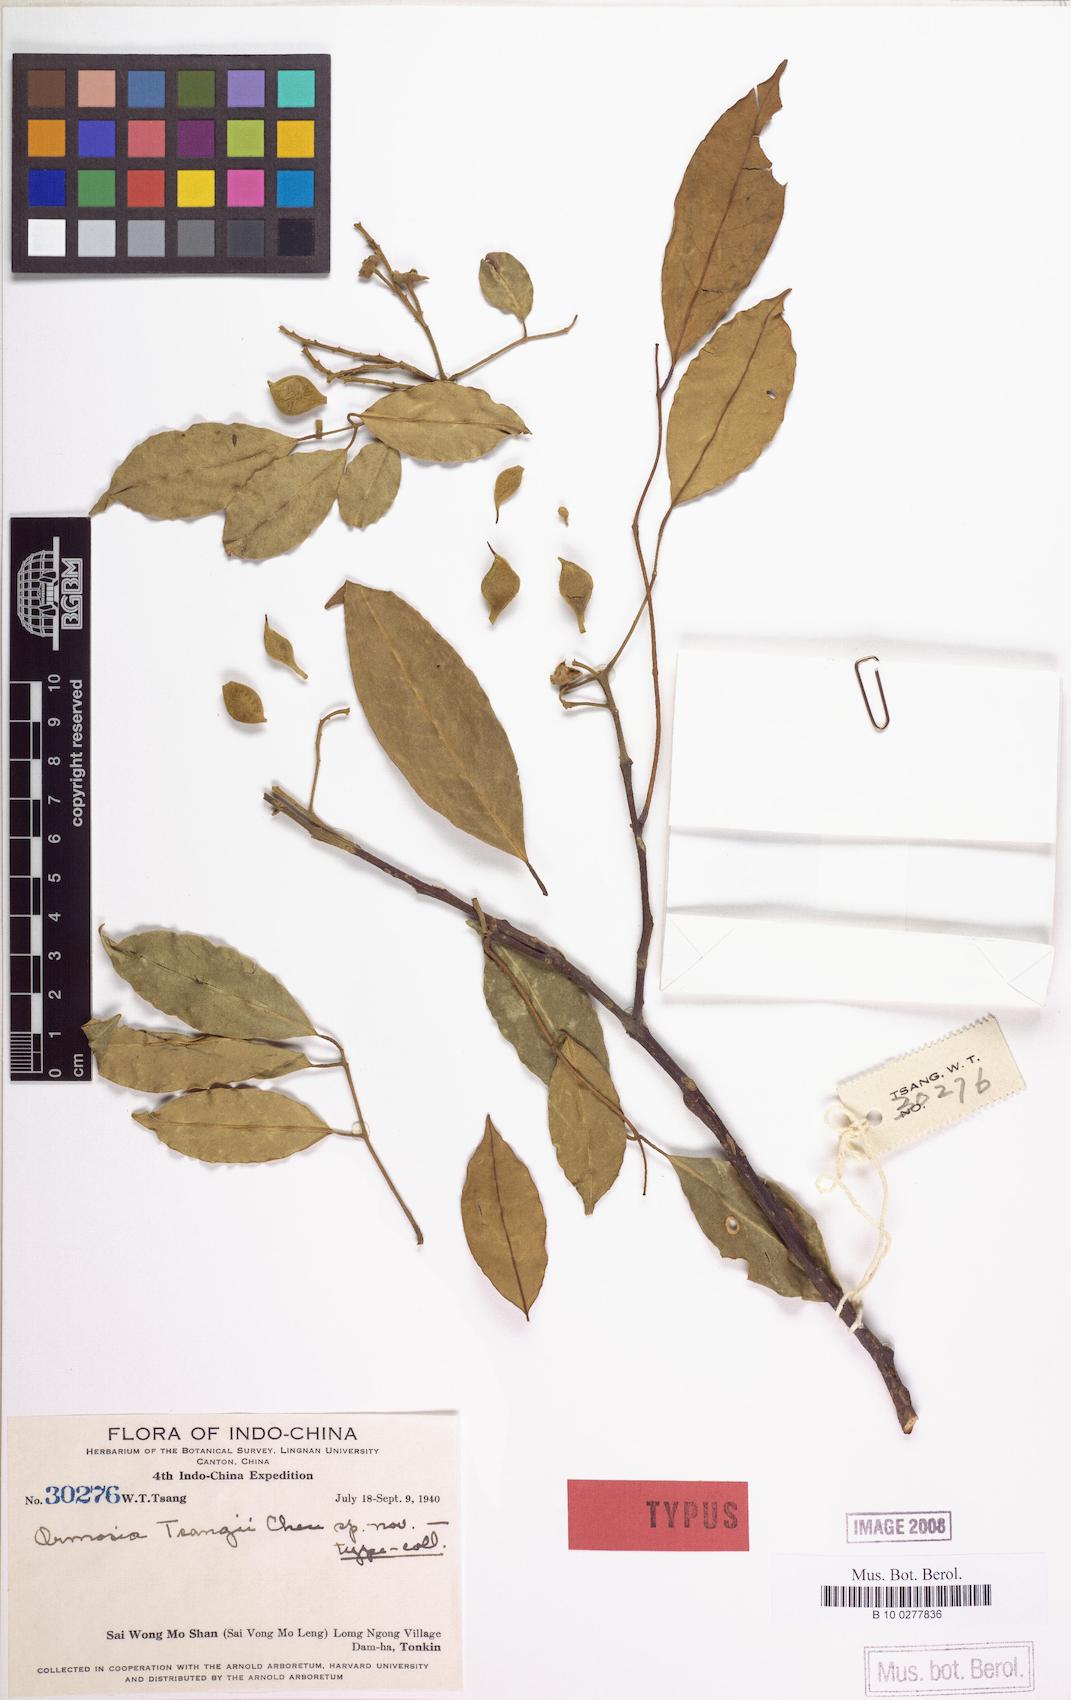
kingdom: Plantae
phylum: Tracheophyta
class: Magnoliopsida
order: Fabales
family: Fabaceae
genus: Ormosia
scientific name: Ormosia tsangii
